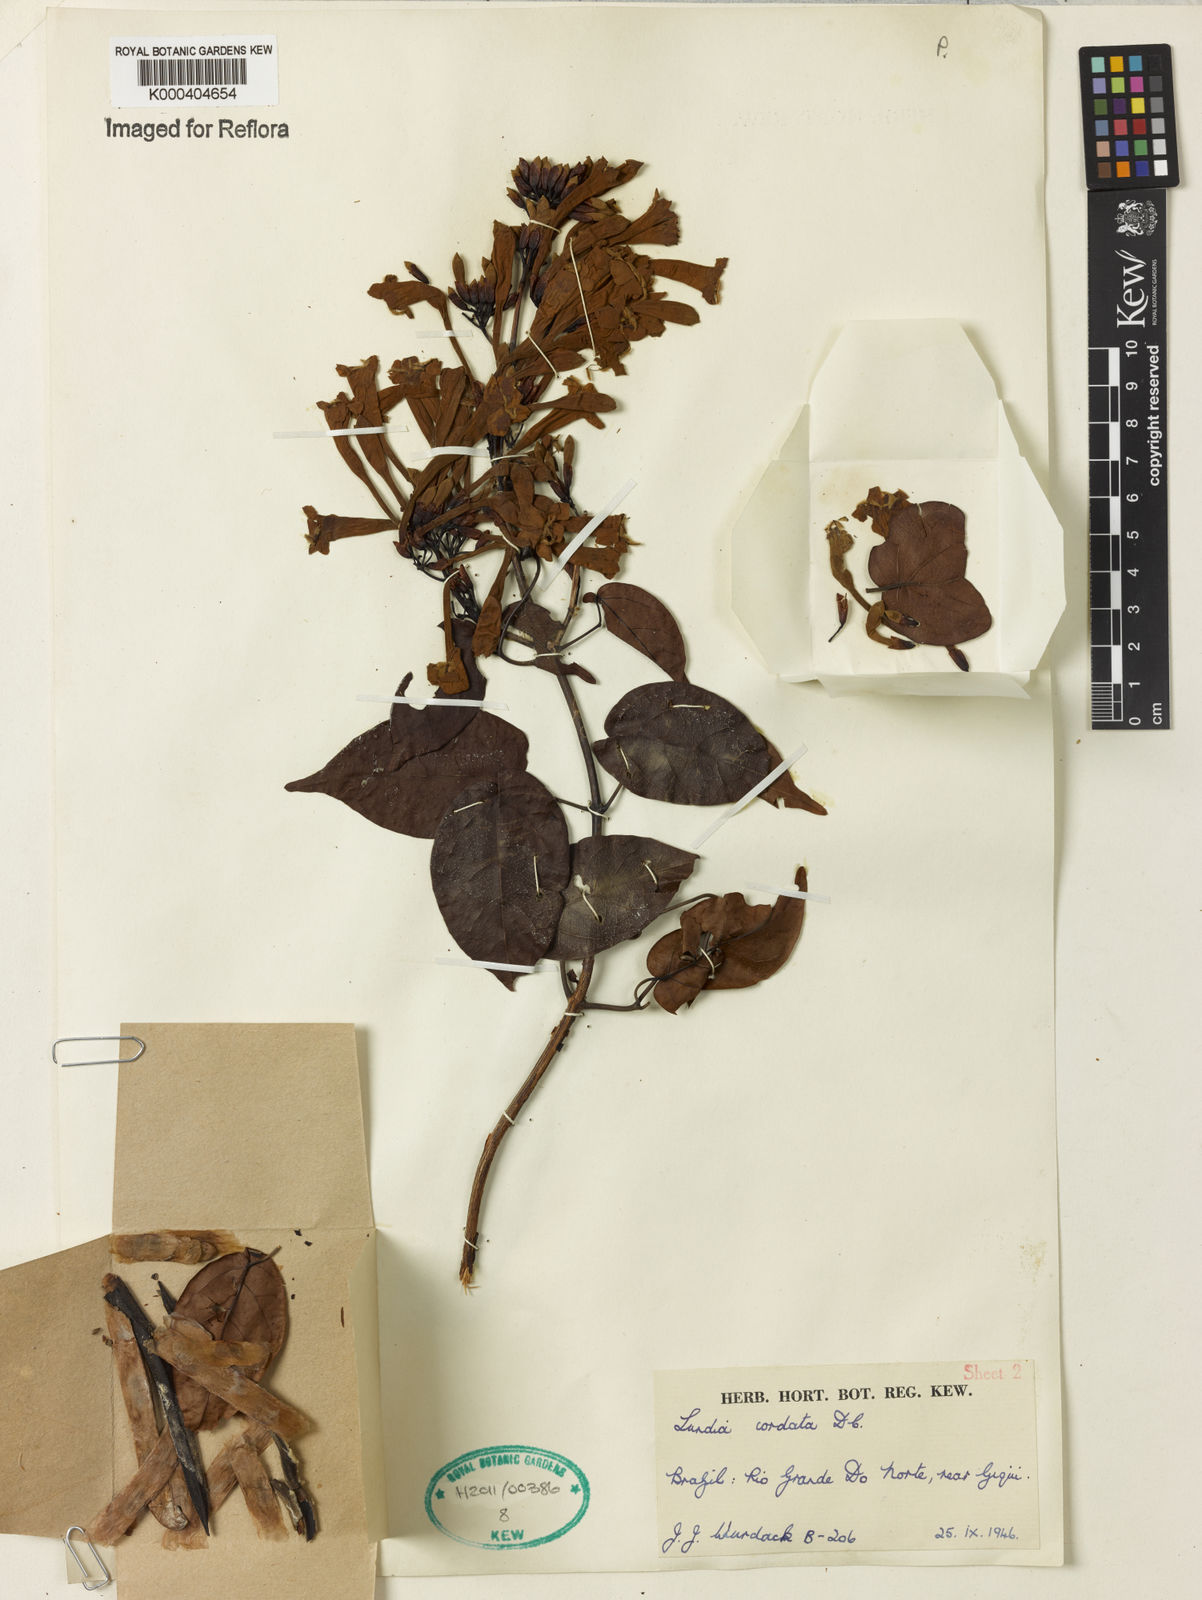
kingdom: Plantae
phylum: Tracheophyta
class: Magnoliopsida
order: Lamiales
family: Bignoniaceae
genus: Lundia
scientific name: Lundia corymbifera
